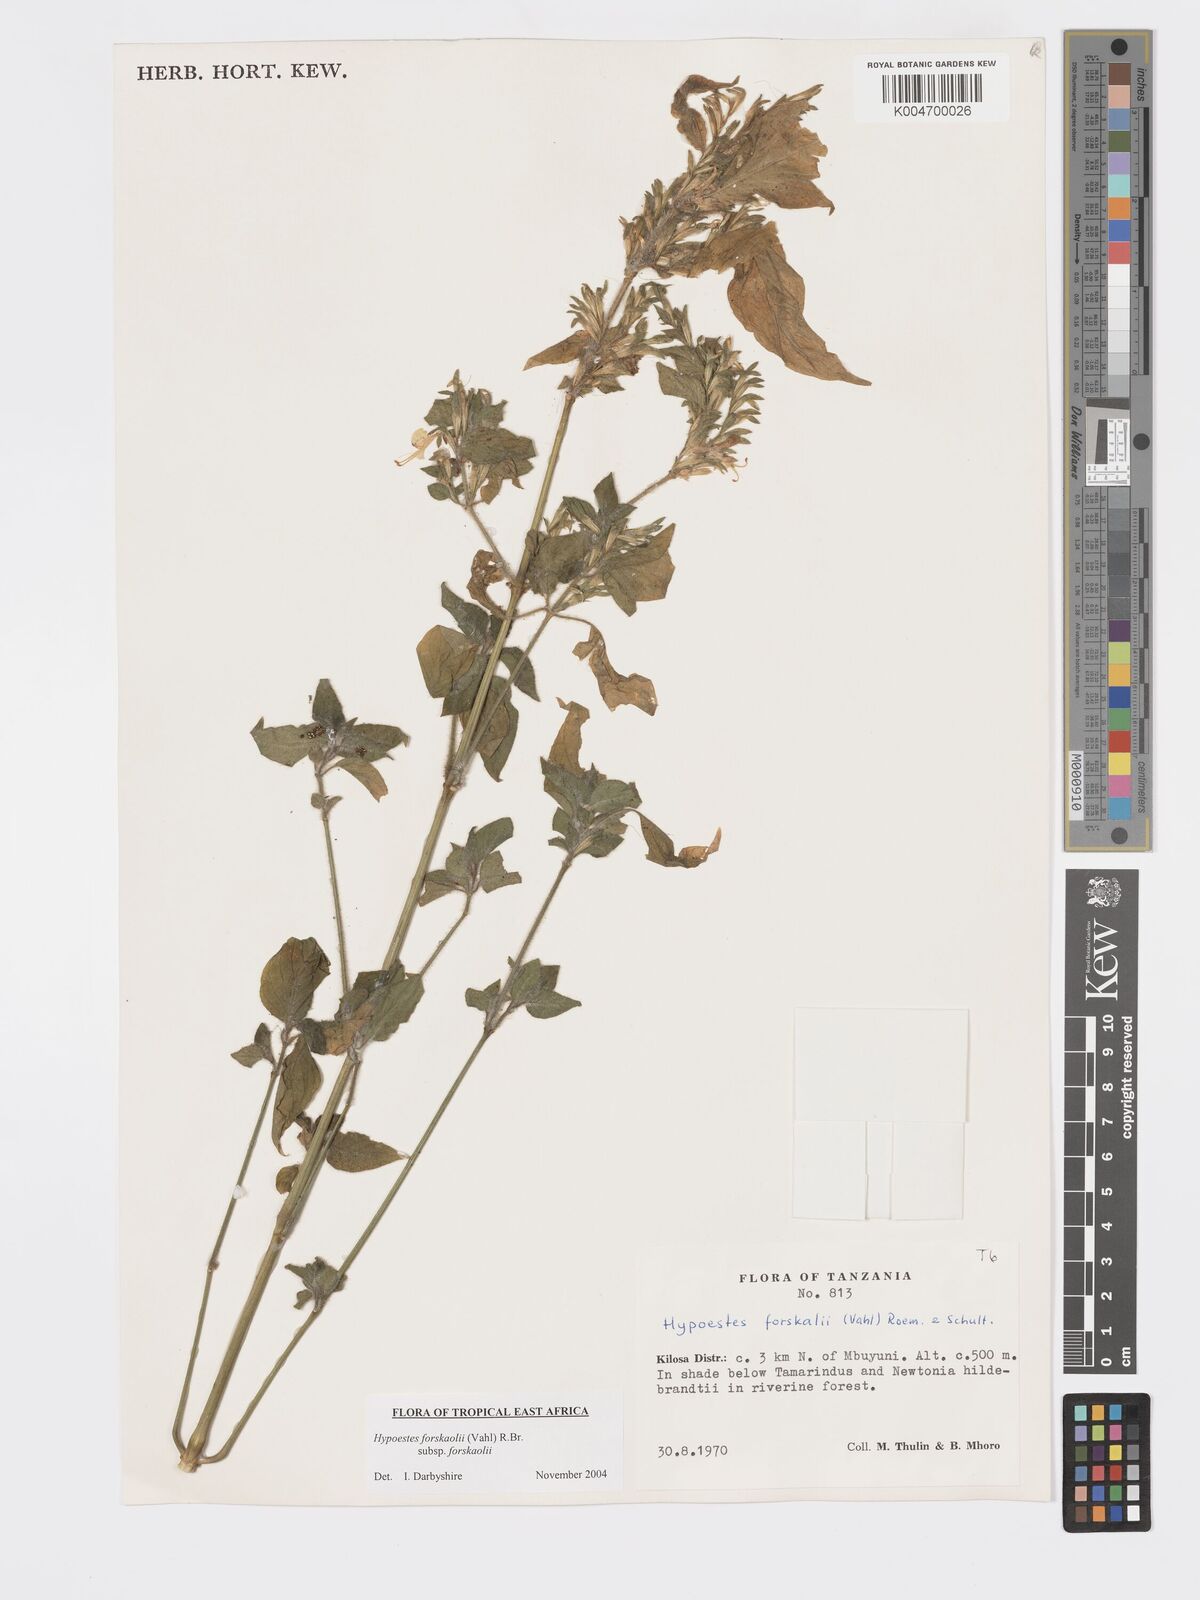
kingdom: Plantae
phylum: Tracheophyta
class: Magnoliopsida
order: Lamiales
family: Acanthaceae
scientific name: Acanthaceae
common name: Acanthaceae
